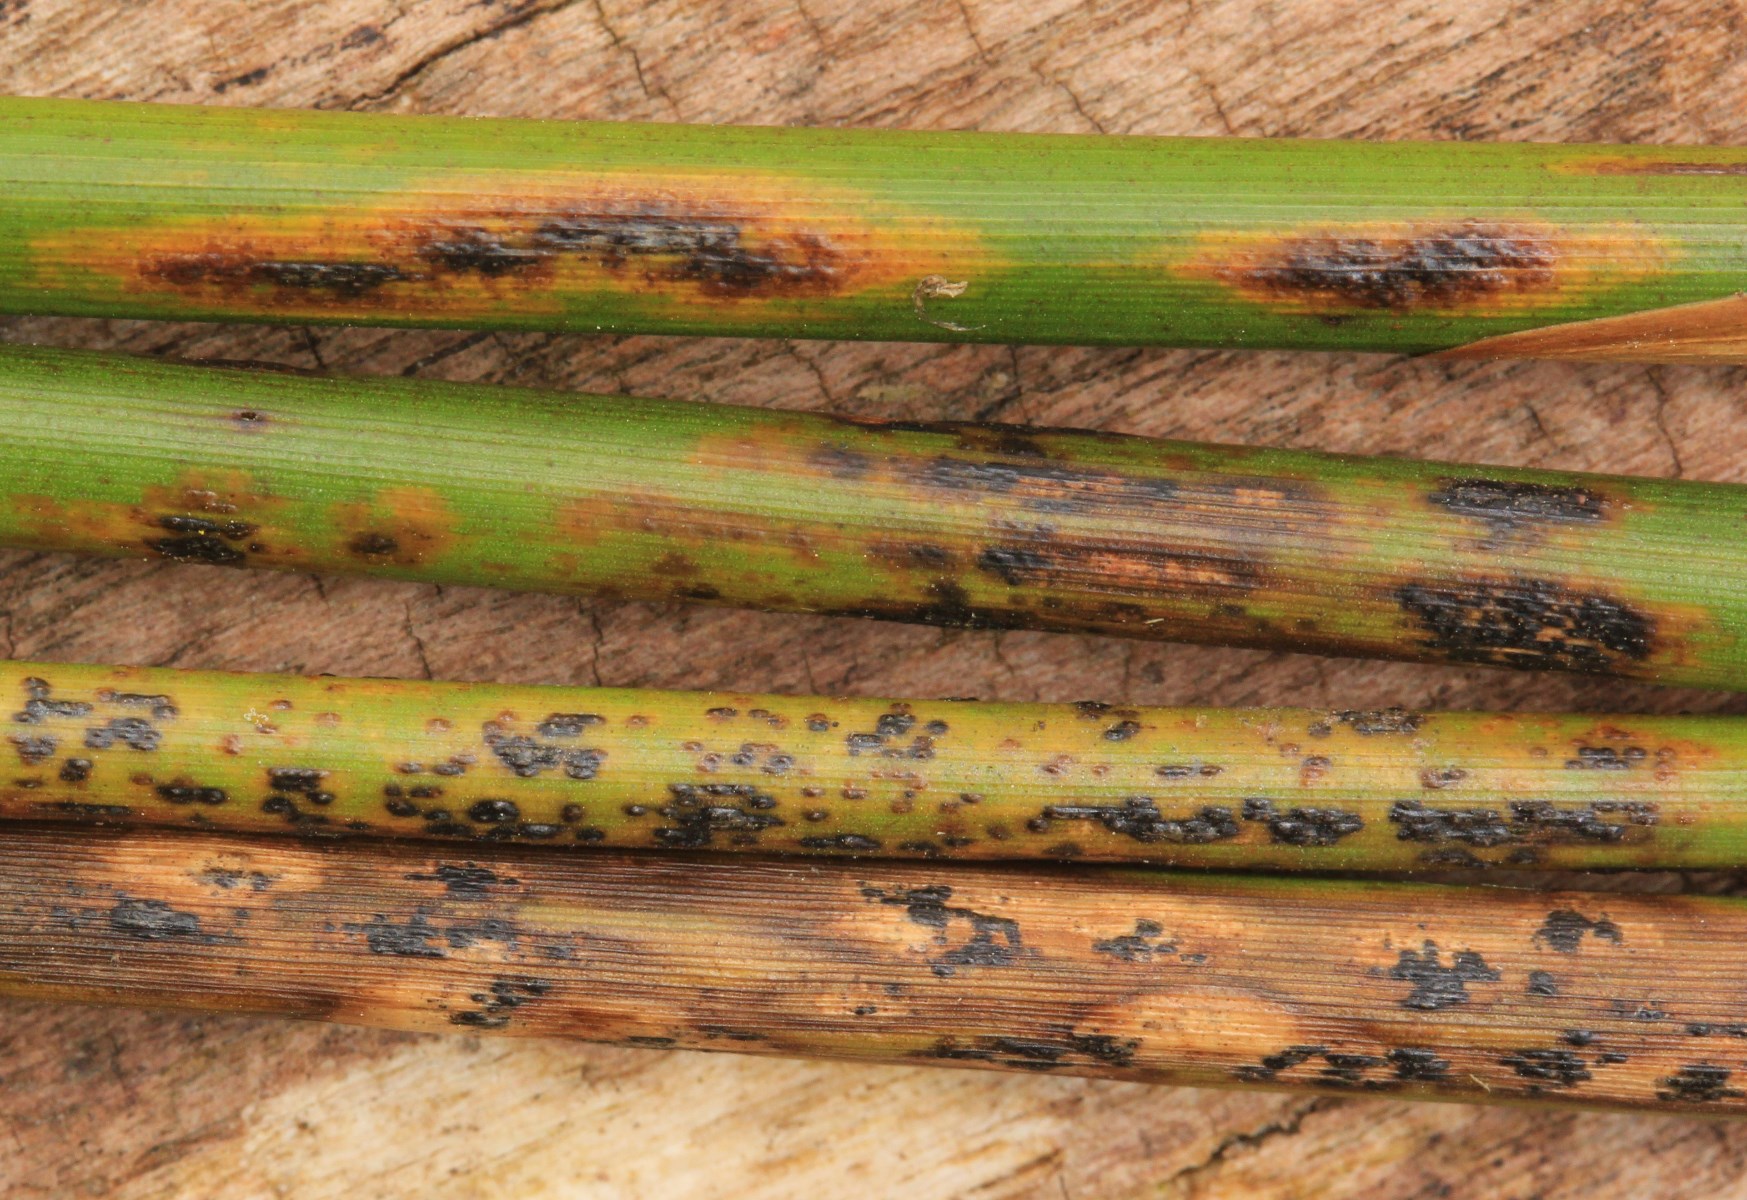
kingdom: Fungi
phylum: Ascomycota
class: Sordariomycetes
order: Phyllachorales
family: Phyllachoraceae
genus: Phyllachora
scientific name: Phyllachora junci
